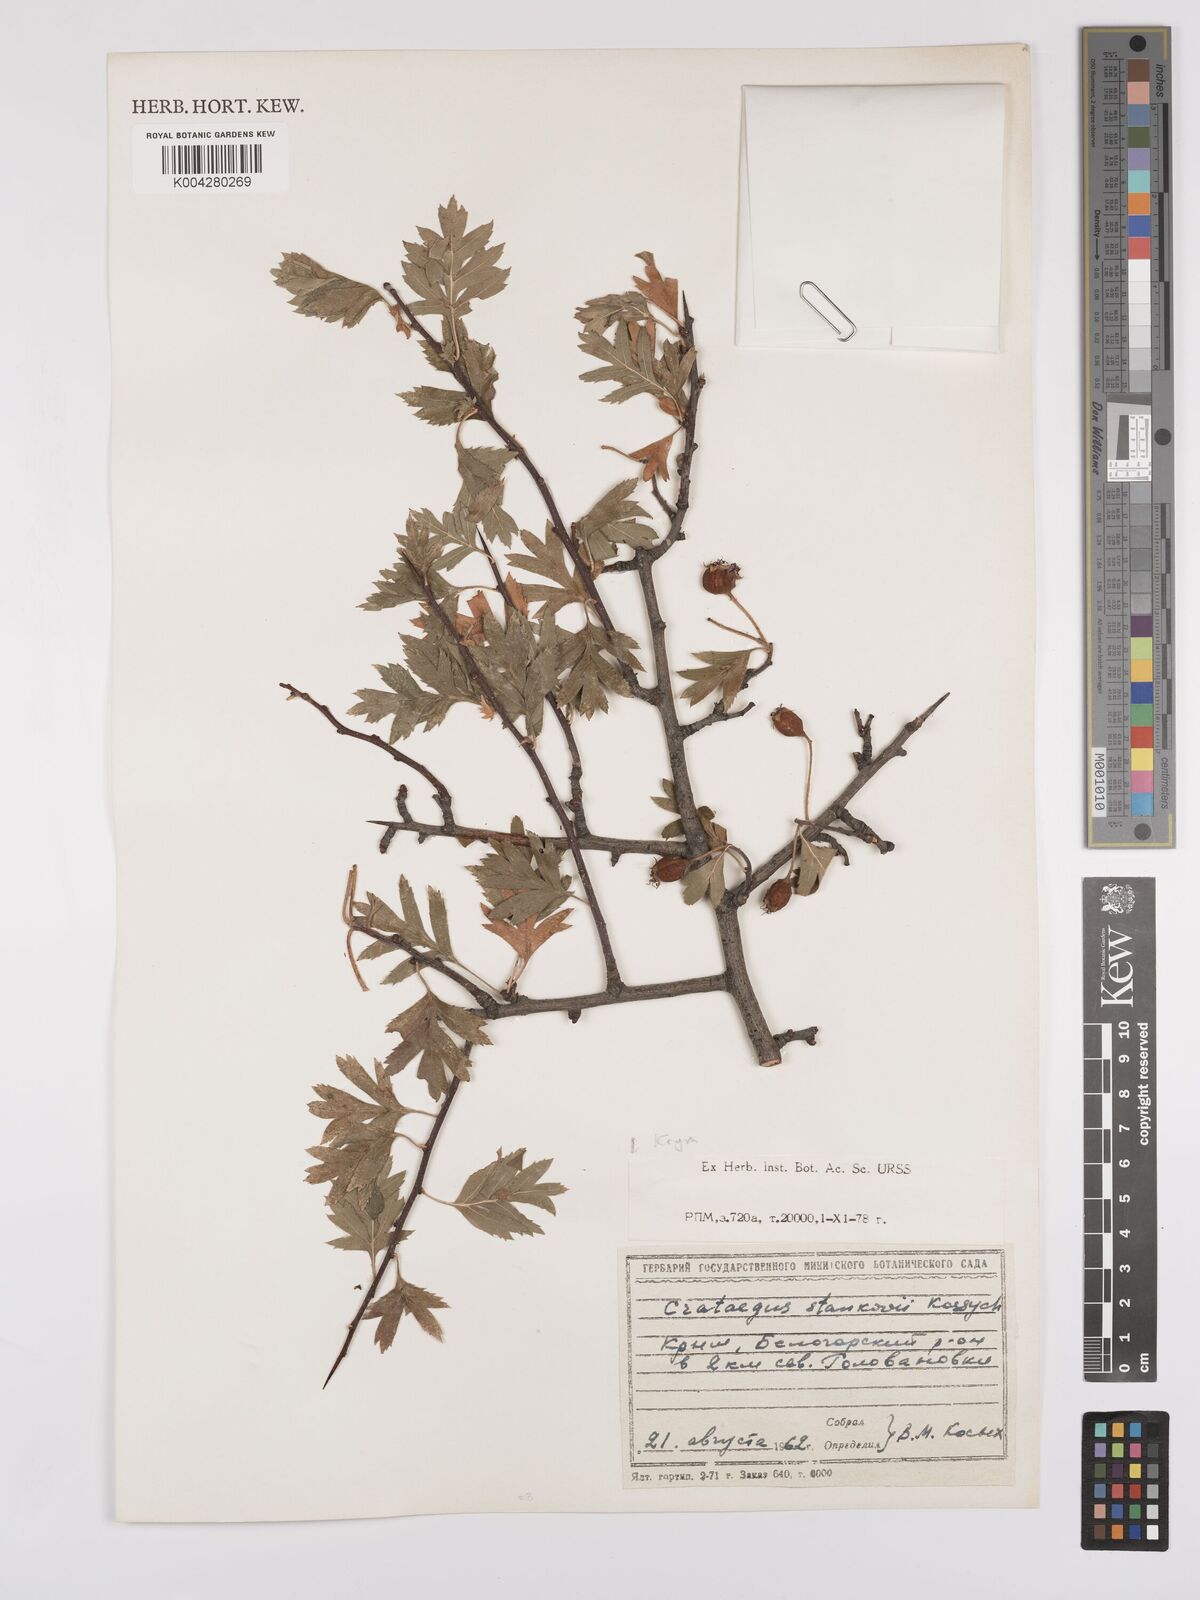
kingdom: Plantae
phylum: Tracheophyta
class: Magnoliopsida
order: Rosales
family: Rosaceae
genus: Crataegus
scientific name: Crataegus meyeri
